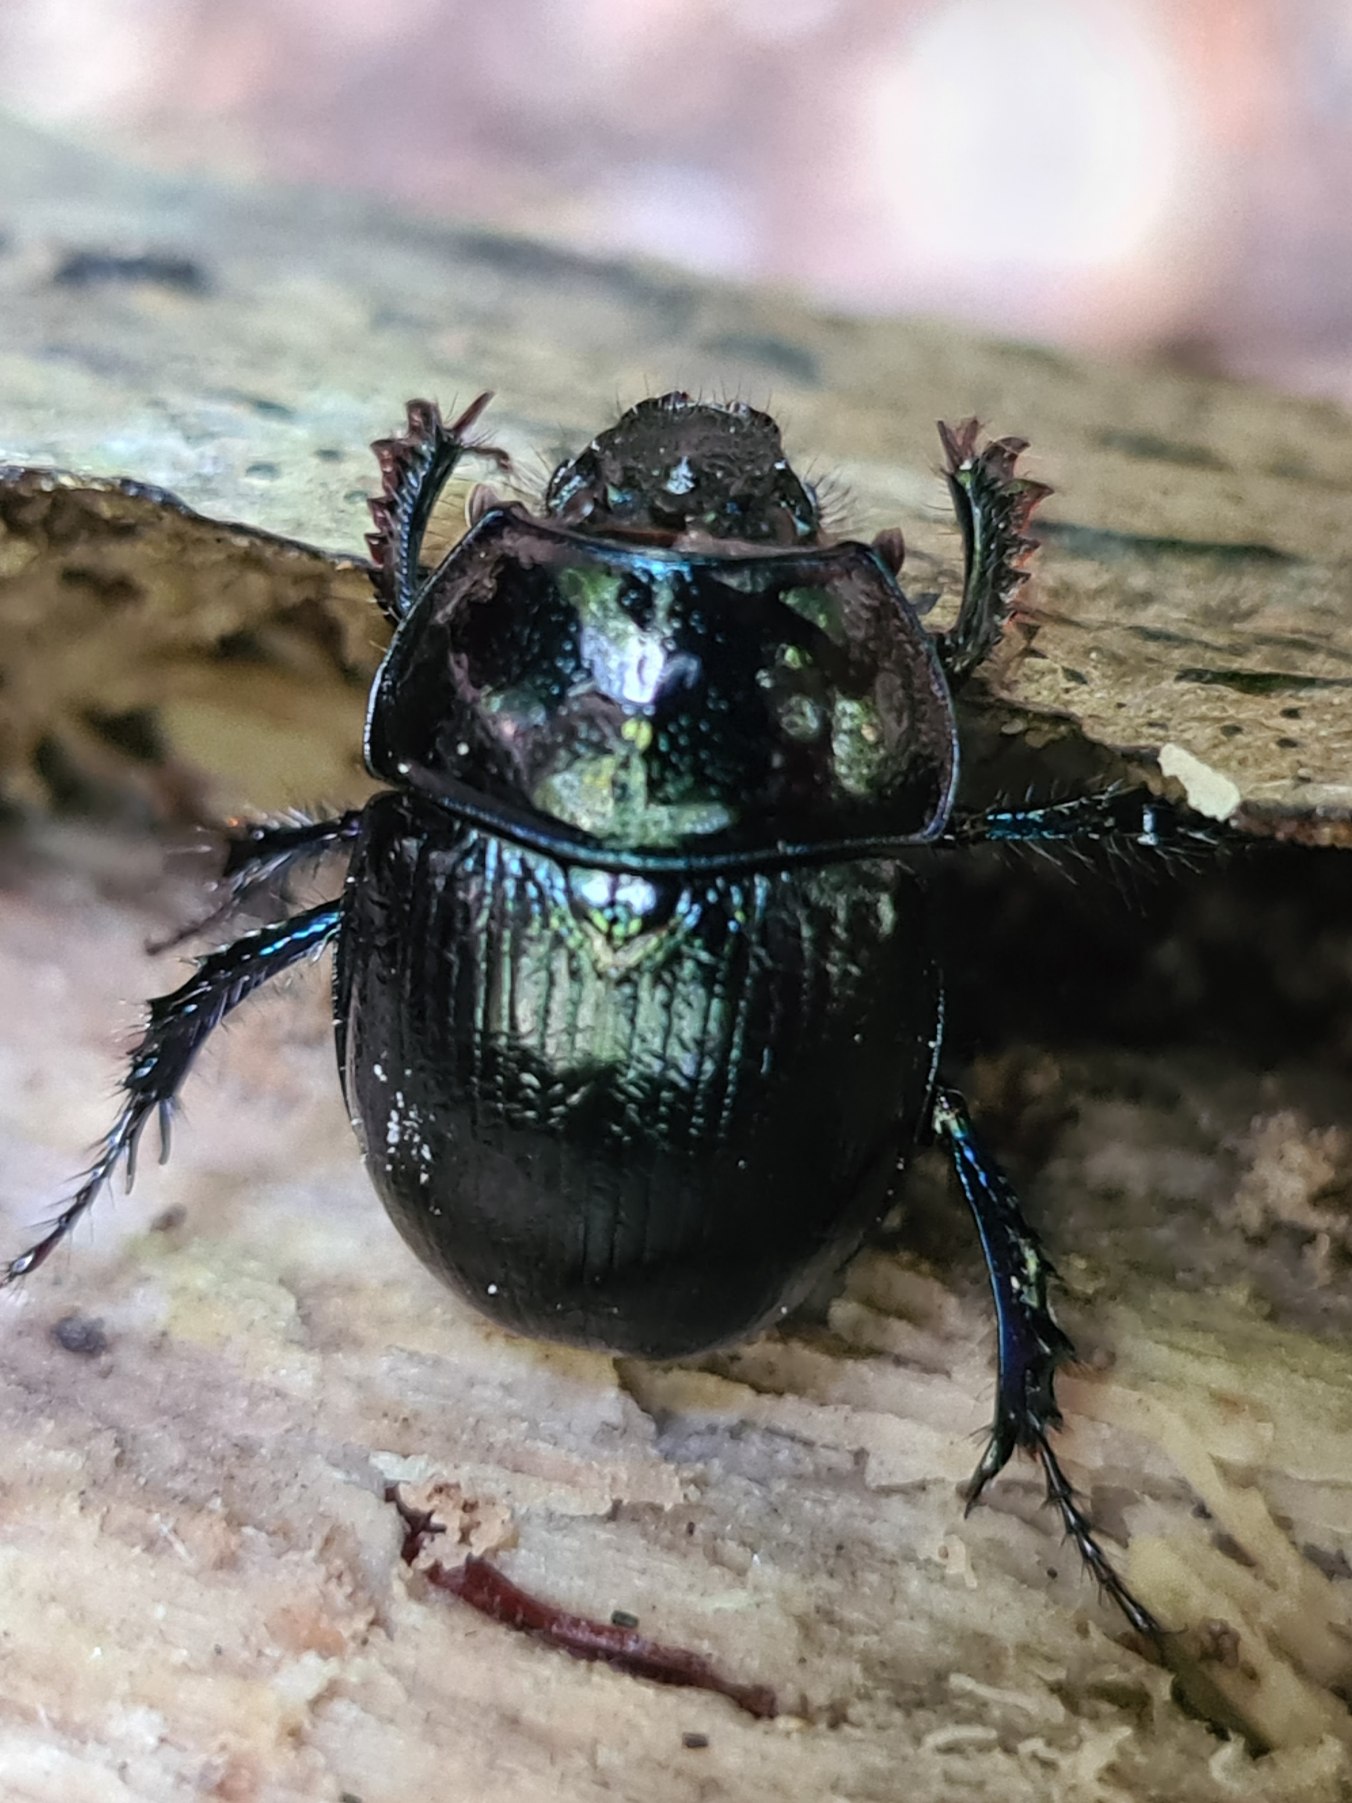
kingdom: Animalia
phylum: Arthropoda
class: Insecta
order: Coleoptera
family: Geotrupidae
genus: Anoplotrupes
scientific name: Anoplotrupes stercorosus
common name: Skovskarnbasse
